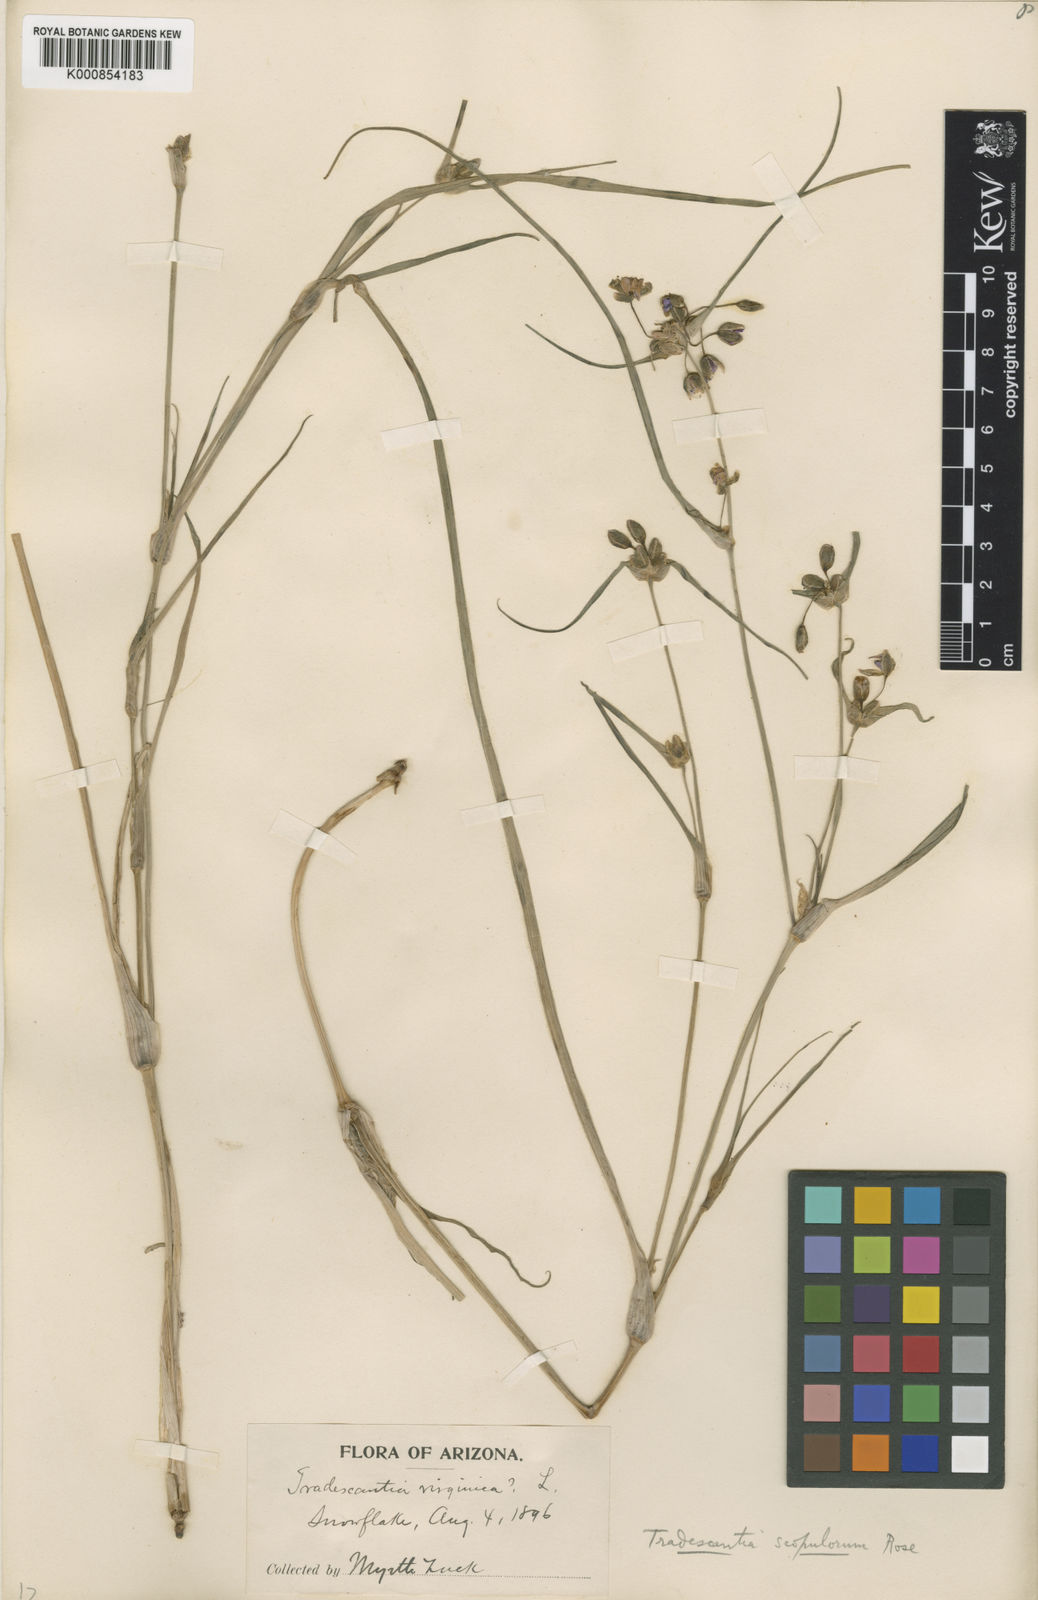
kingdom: Plantae
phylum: Tracheophyta
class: Liliopsida
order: Commelinales
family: Commelinaceae
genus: Tradescantia
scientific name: Tradescantia occidentalis
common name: Prairie spiderwort
